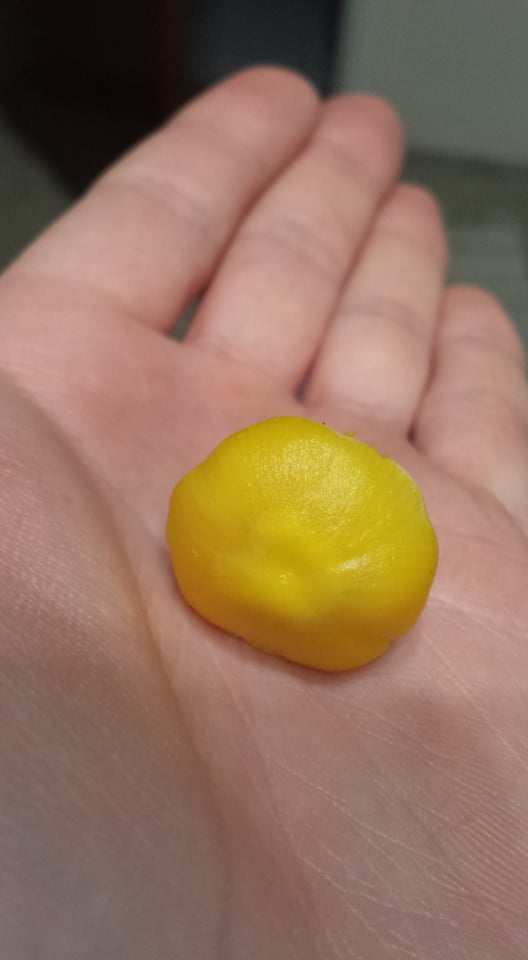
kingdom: Fungi
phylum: Basidiomycota
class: Agaricomycetes
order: Agaricales
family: Hygrophoraceae
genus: Hygrocybe
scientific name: Hygrocybe chlorophana
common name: gul vokshat
